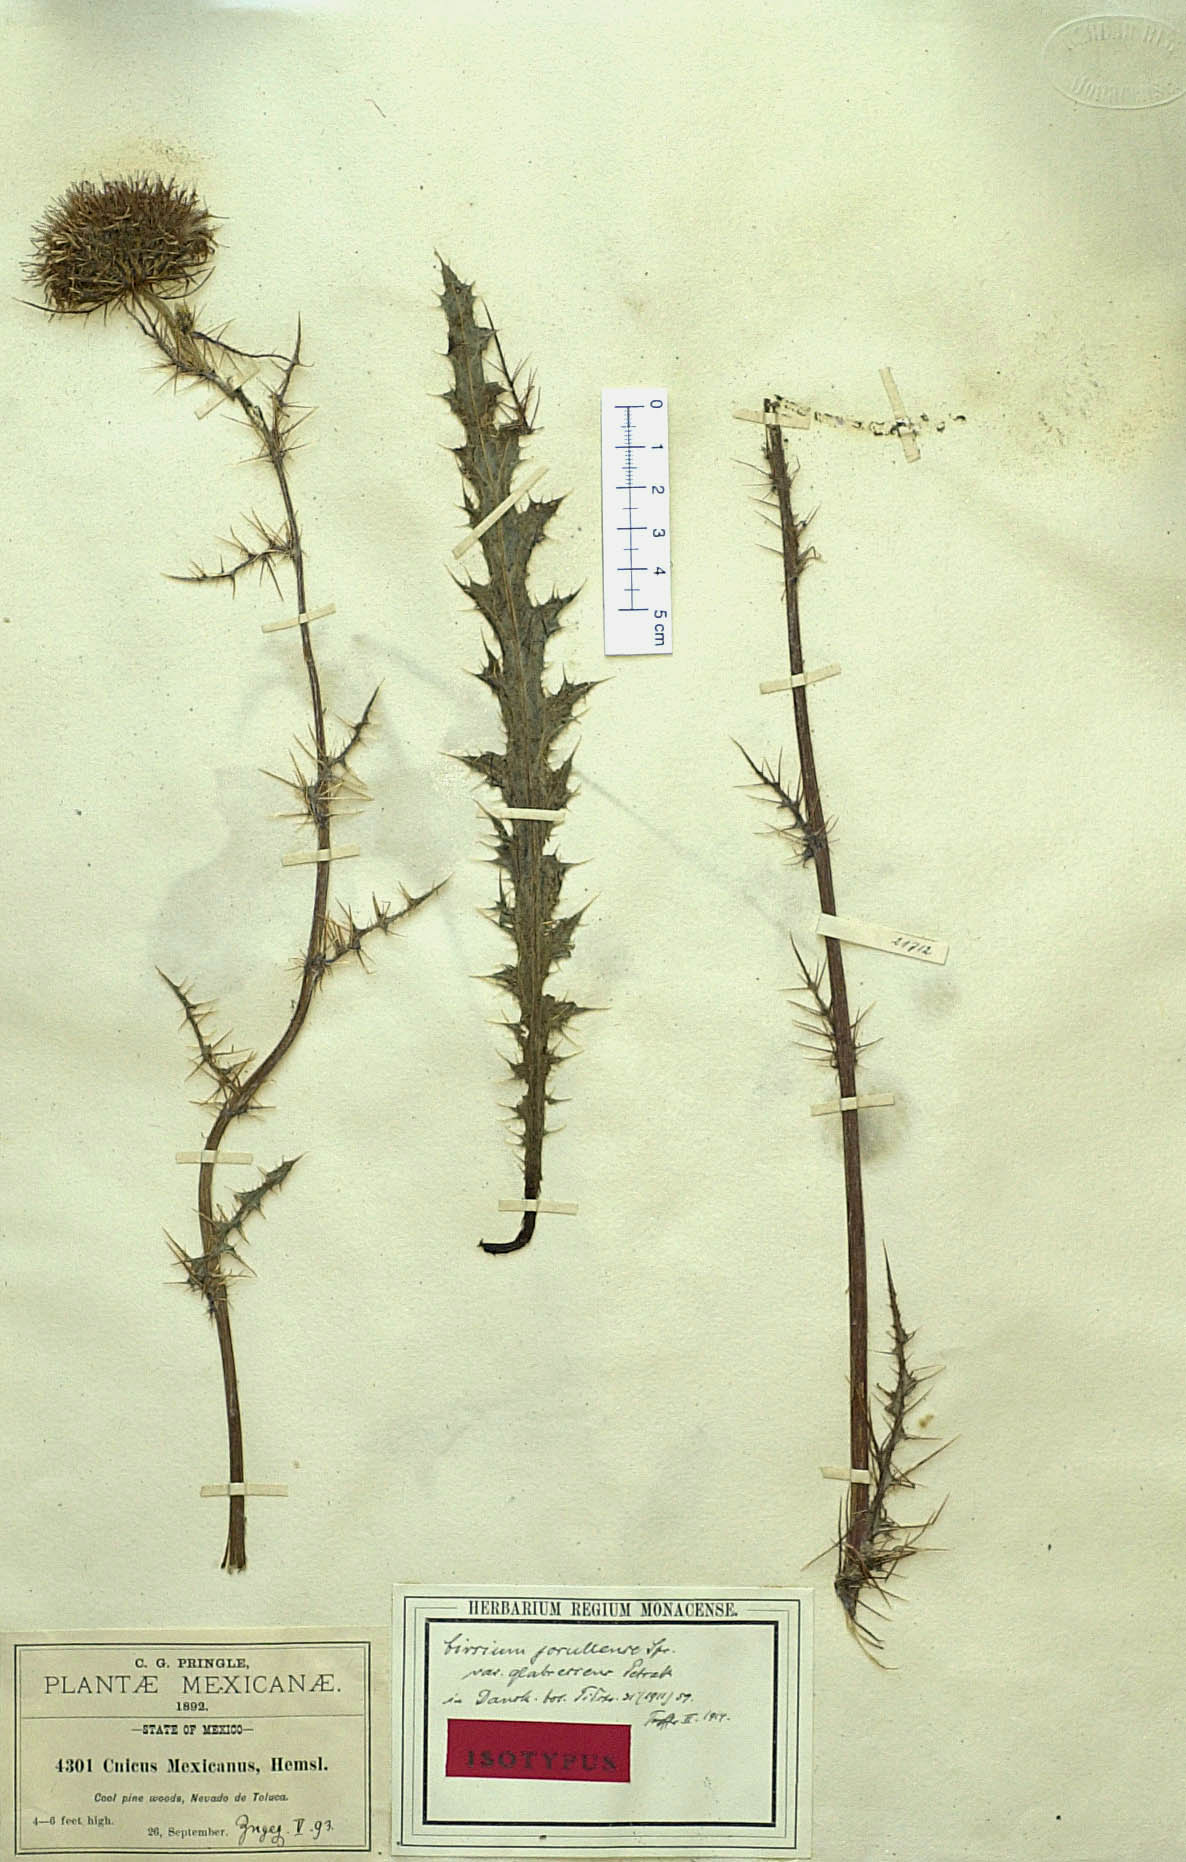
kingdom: Plantae
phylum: Tracheophyta
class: Magnoliopsida
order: Asterales
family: Asteraceae
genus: Cirsium
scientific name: Cirsium jorullense
